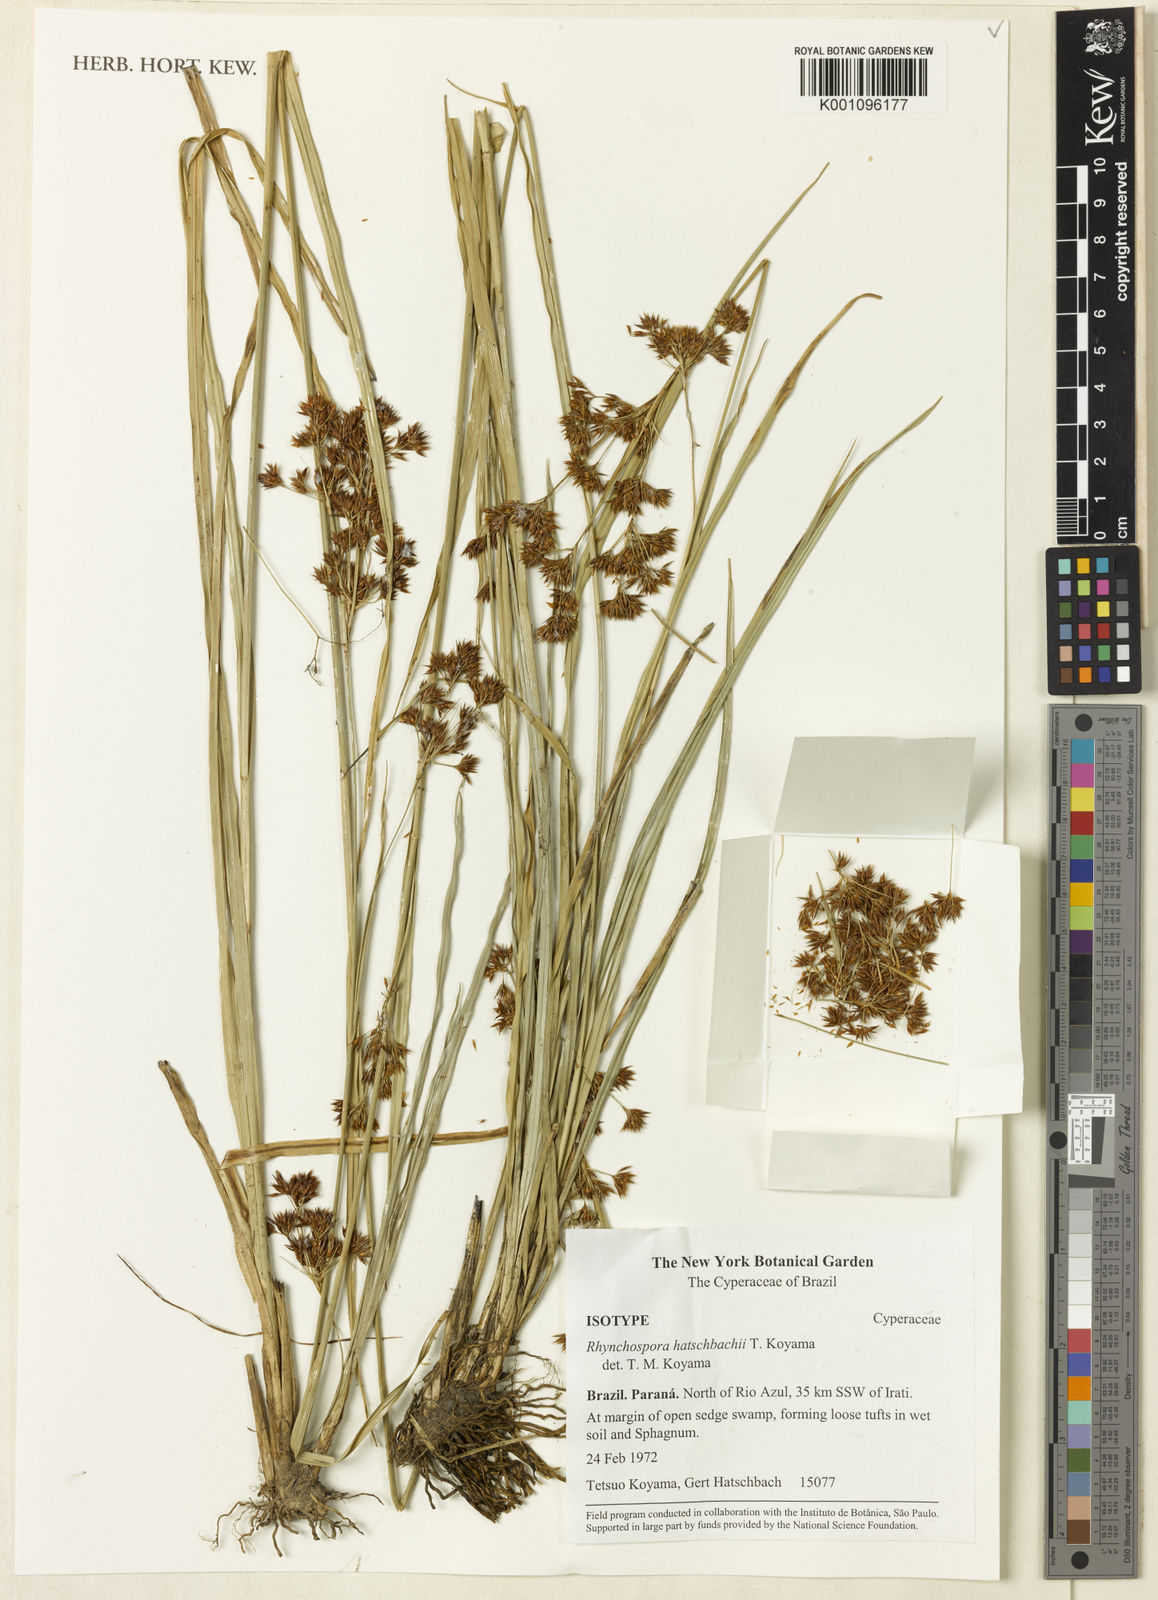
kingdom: Plantae
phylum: Tracheophyta
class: Liliopsida
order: Poales
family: Cyperaceae
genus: Rhynchospora
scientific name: Rhynchospora hatschbachii
